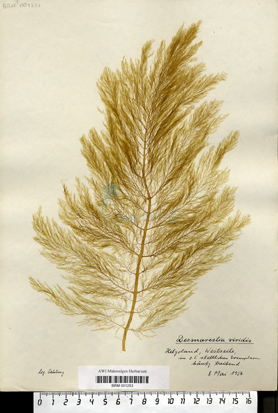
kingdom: Chromista
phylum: Ochrophyta
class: Phaeophyceae
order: Desmarestiales
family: Desmarestiaceae
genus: Desmarestia
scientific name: Desmarestia viridis
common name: Stringy acid kelp
